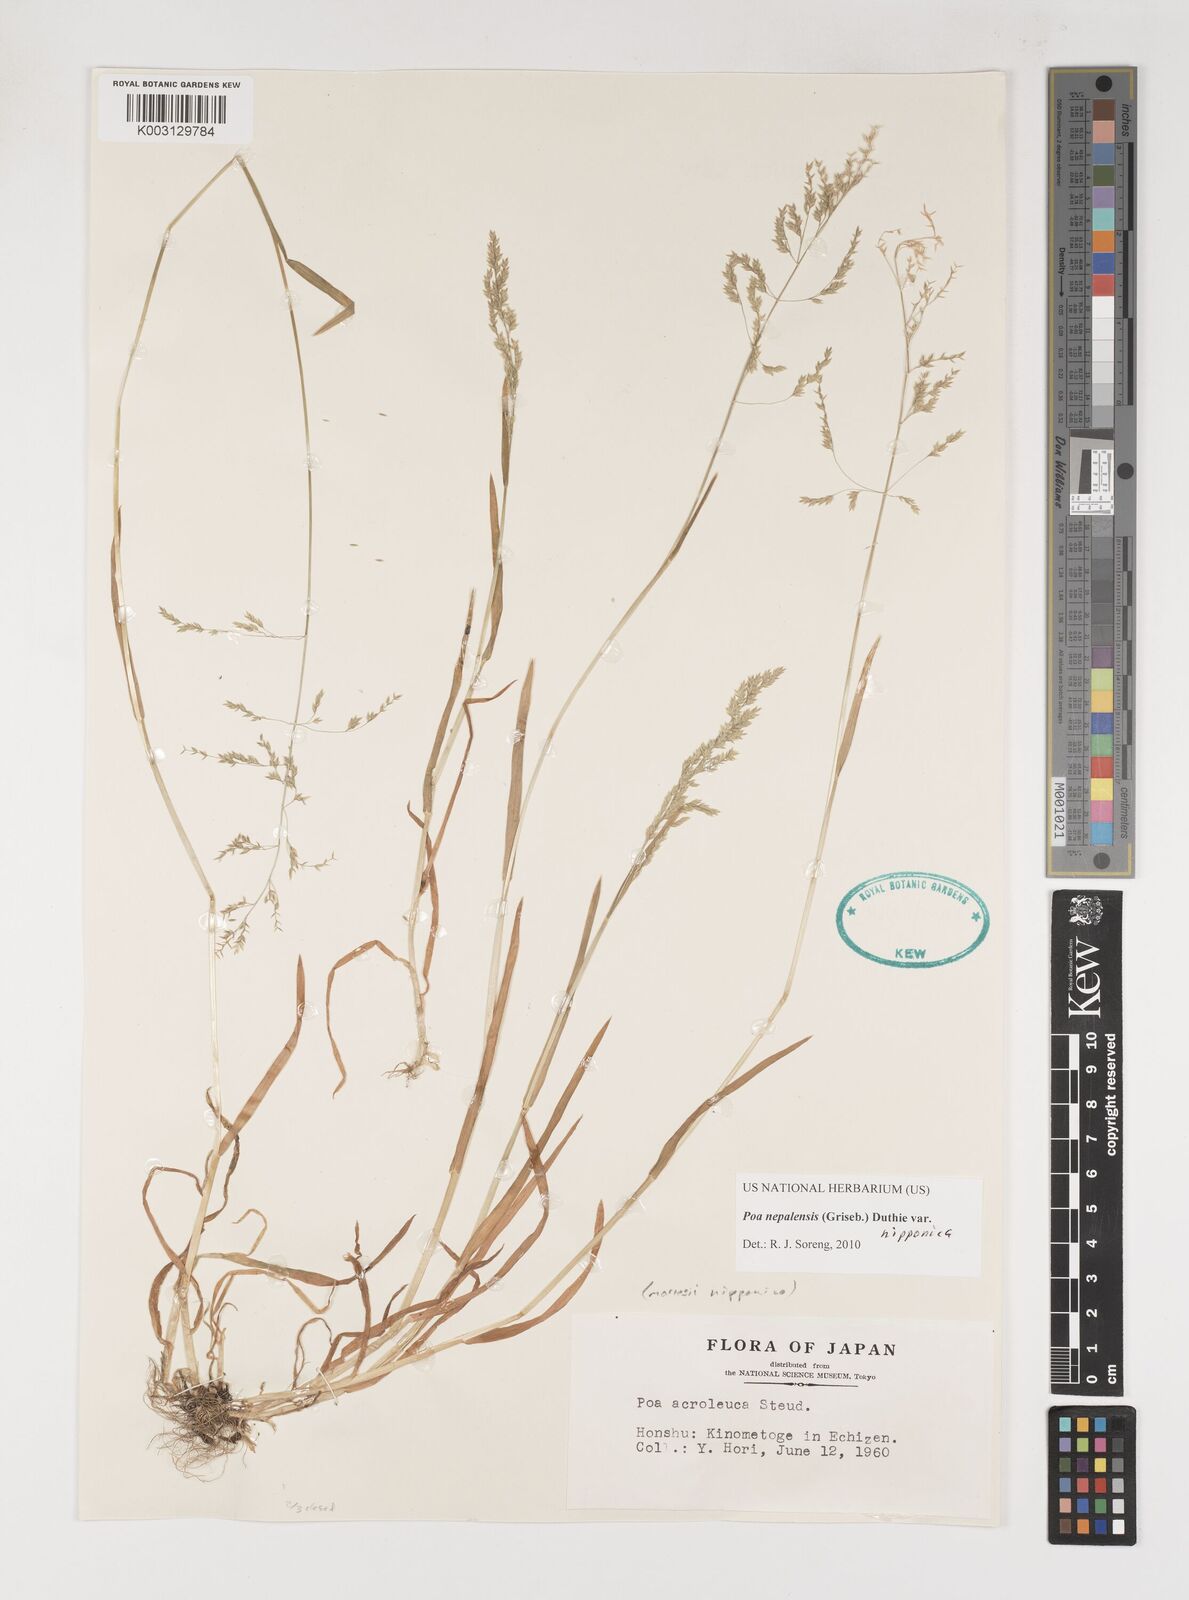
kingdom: Plantae
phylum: Tracheophyta
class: Liliopsida
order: Poales
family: Poaceae
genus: Poa
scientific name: Poa nepalensis
